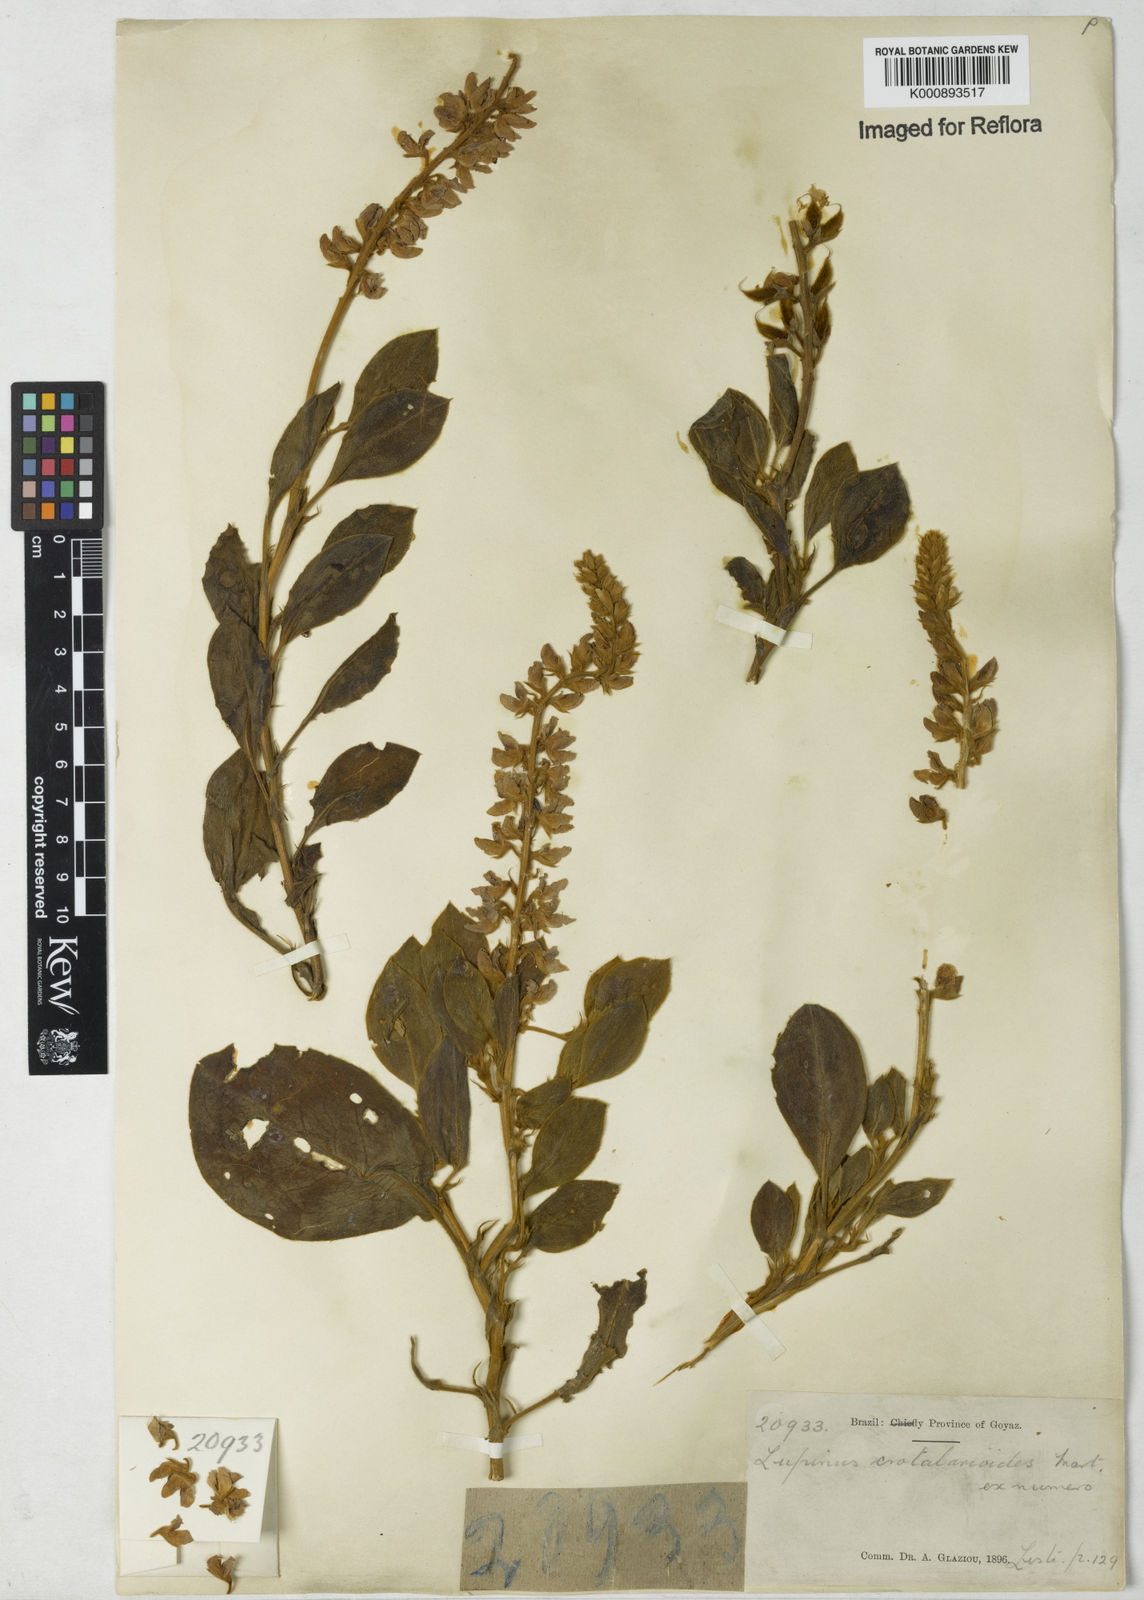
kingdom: Plantae
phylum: Tracheophyta
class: Magnoliopsida
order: Fabales
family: Fabaceae
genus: Lupinus
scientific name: Lupinus crotalarioides
